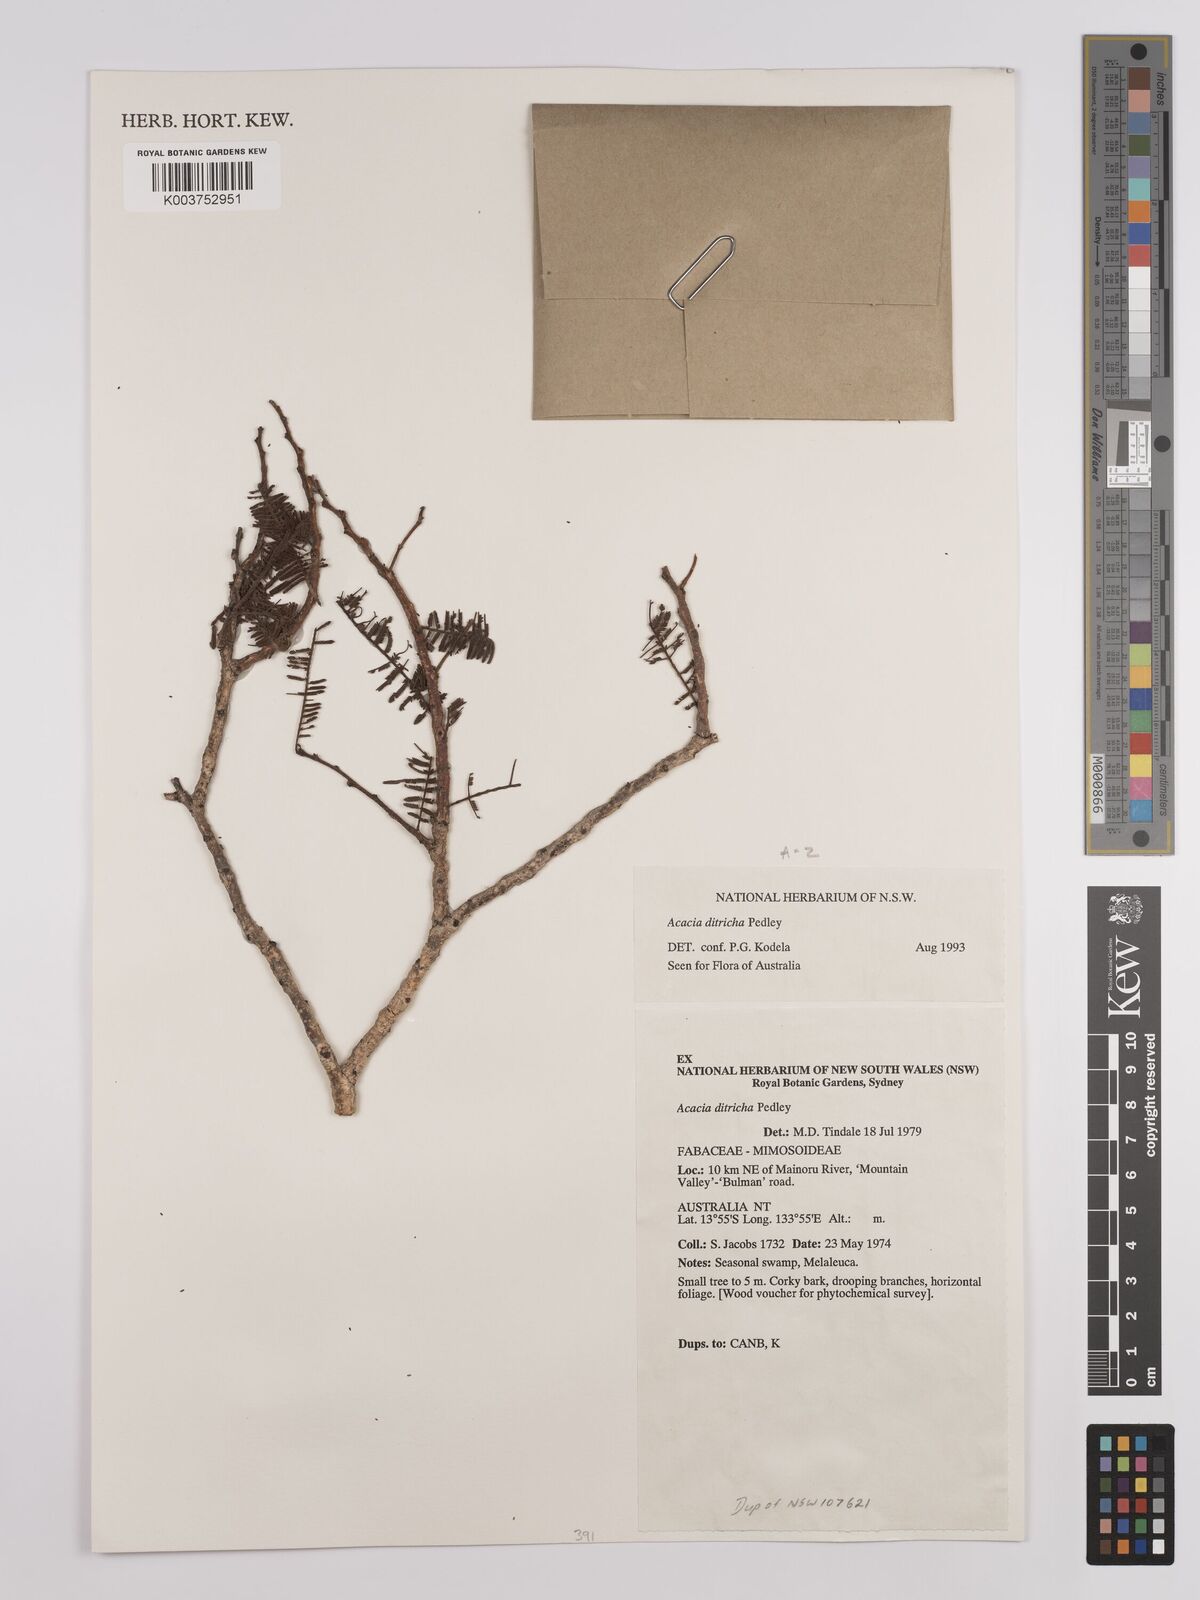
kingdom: Plantae
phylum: Tracheophyta
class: Magnoliopsida
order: Fabales
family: Fabaceae
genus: Vachellia
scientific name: Vachellia ditricha
